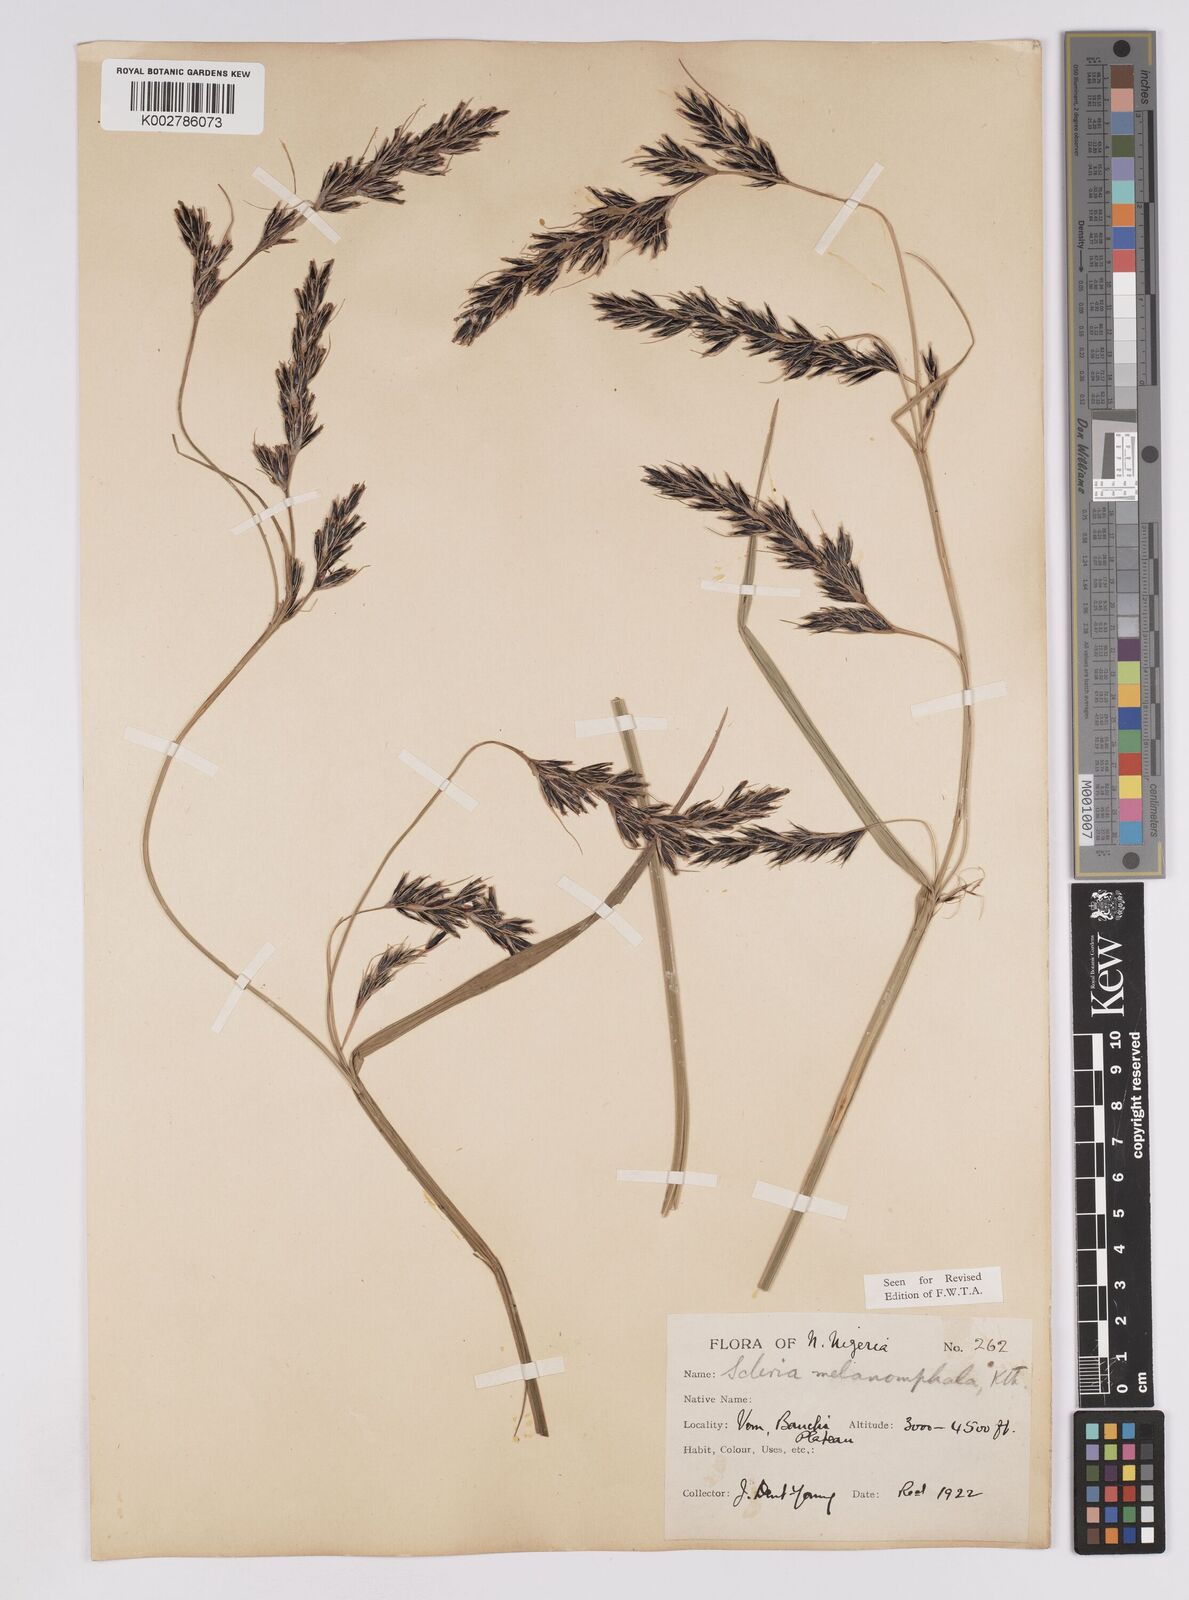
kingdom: Plantae
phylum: Tracheophyta
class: Liliopsida
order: Poales
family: Cyperaceae
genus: Scleria
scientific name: Scleria melanomphala
